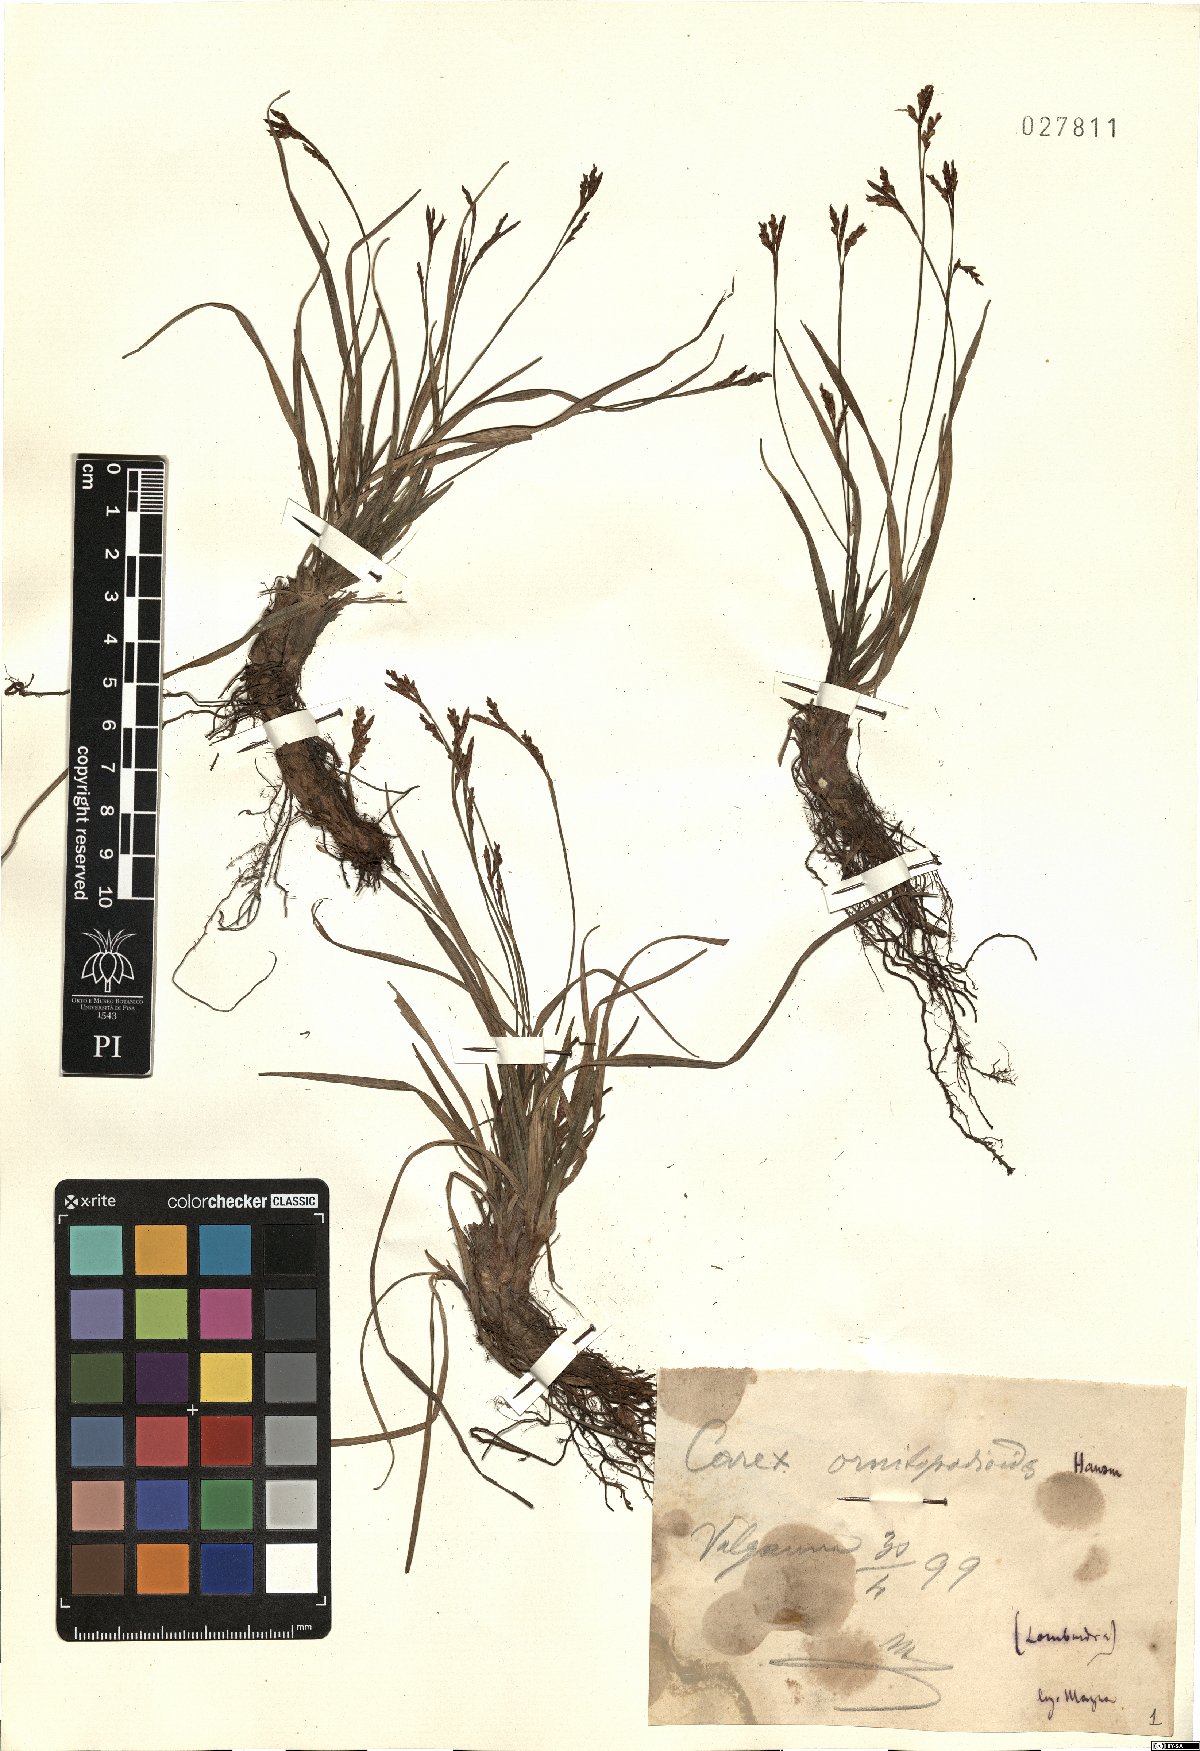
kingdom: Plantae
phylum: Tracheophyta
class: Liliopsida
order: Poales
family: Cyperaceae
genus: Carex
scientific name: Carex ornithopoda
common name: Bird's-foot sedge
